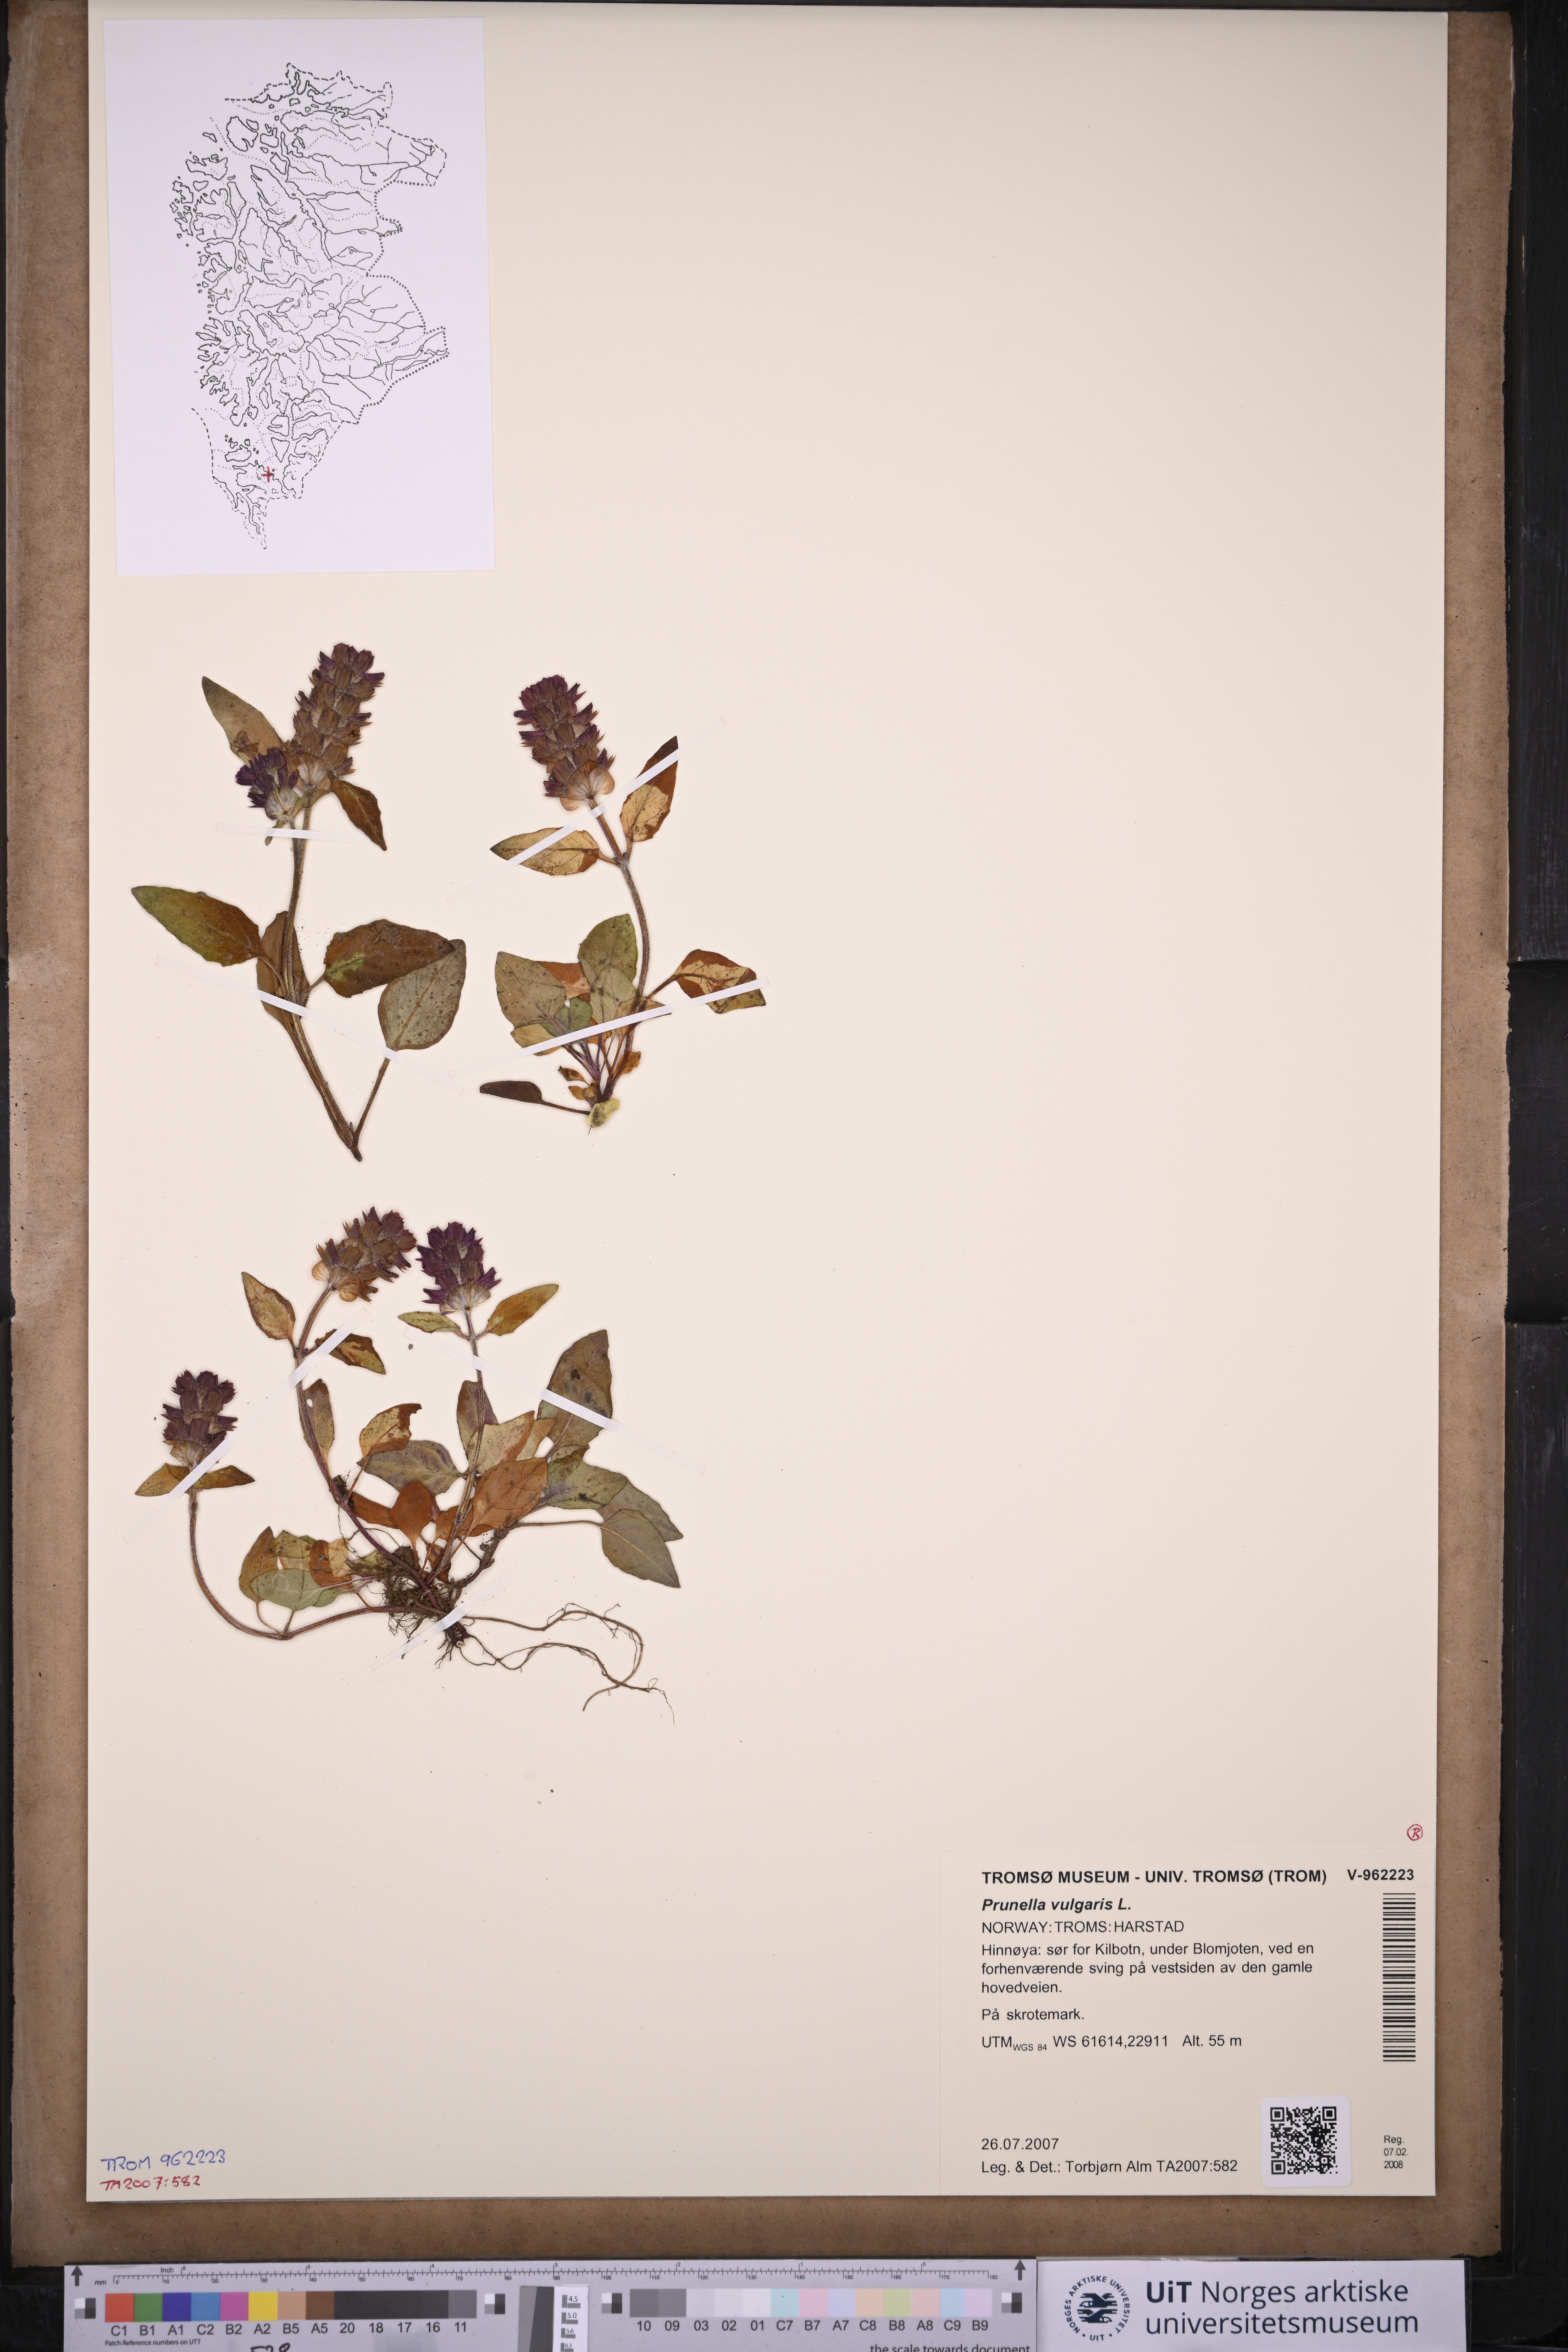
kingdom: Plantae
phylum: Tracheophyta
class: Magnoliopsida
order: Lamiales
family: Lamiaceae
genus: Prunella
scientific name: Prunella vulgaris
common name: Heal-all
